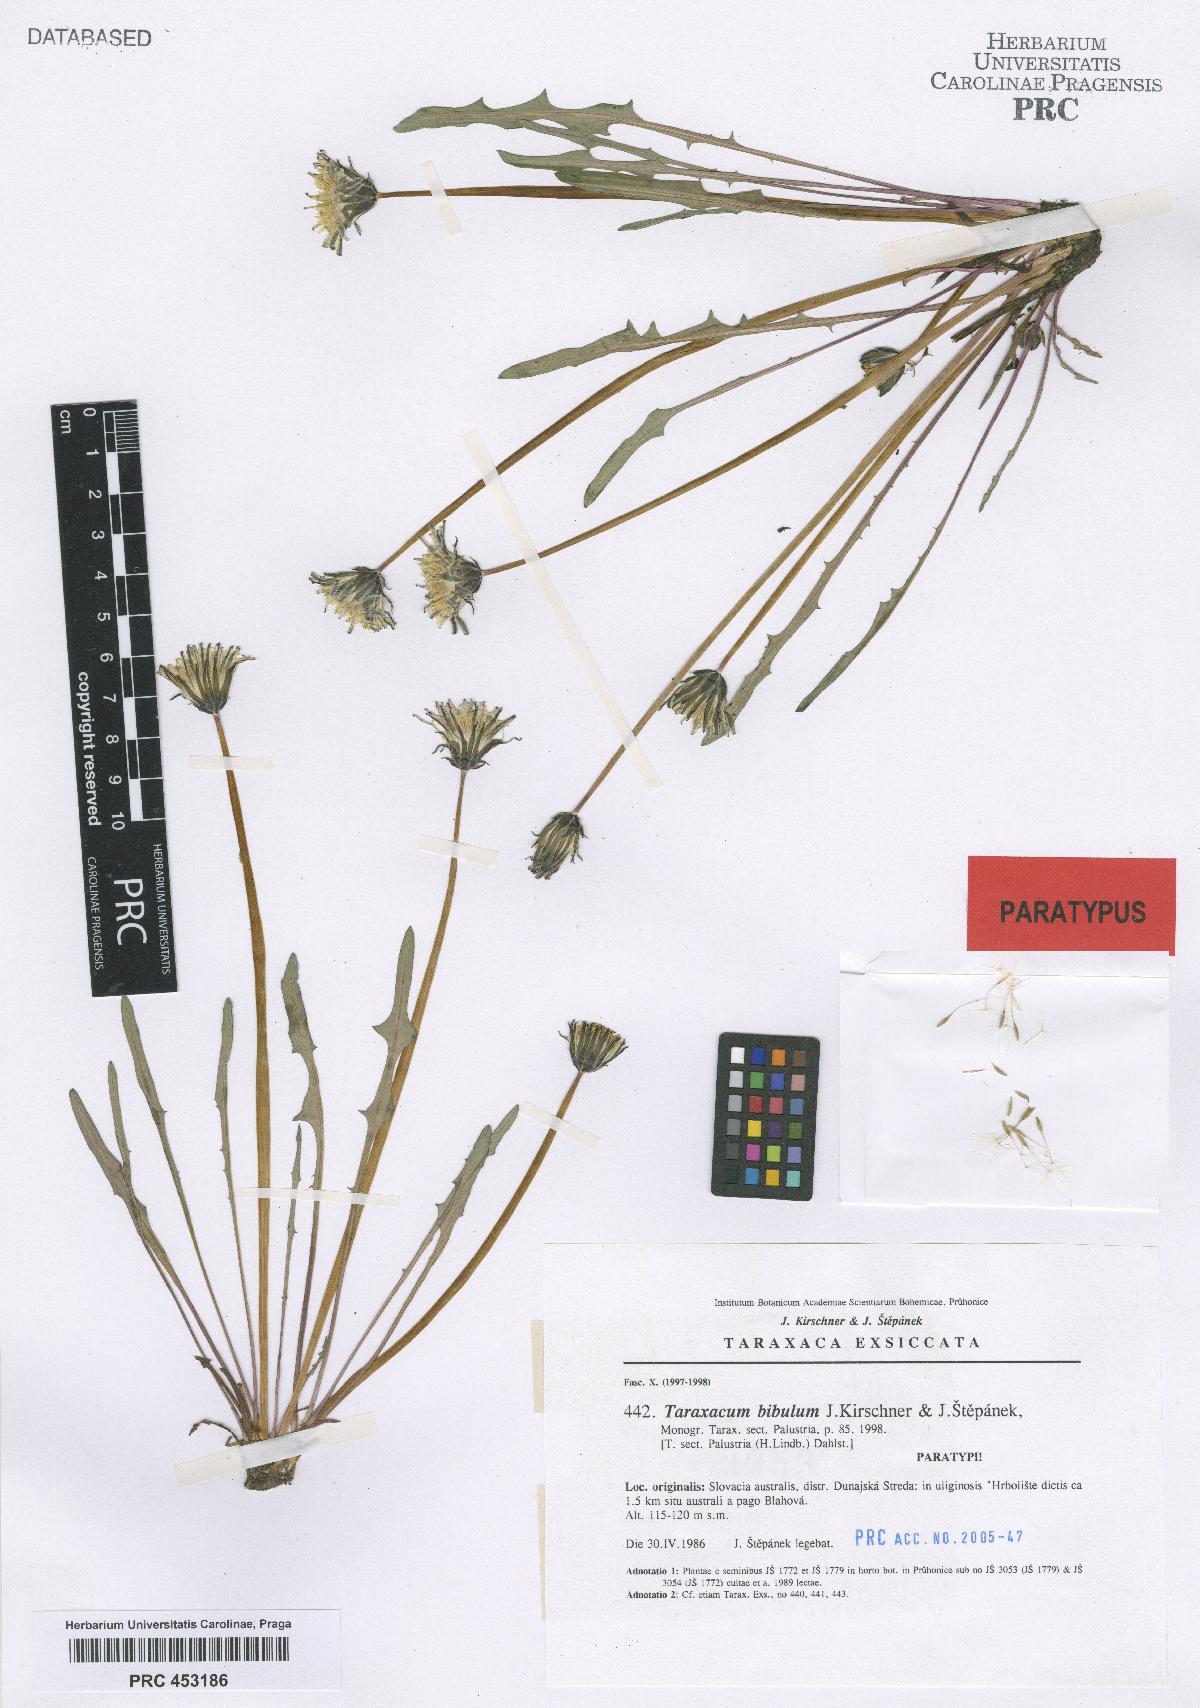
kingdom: Plantae
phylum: Tracheophyta
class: Magnoliopsida
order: Asterales
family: Asteraceae
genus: Taraxacum
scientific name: Taraxacum bibulum
